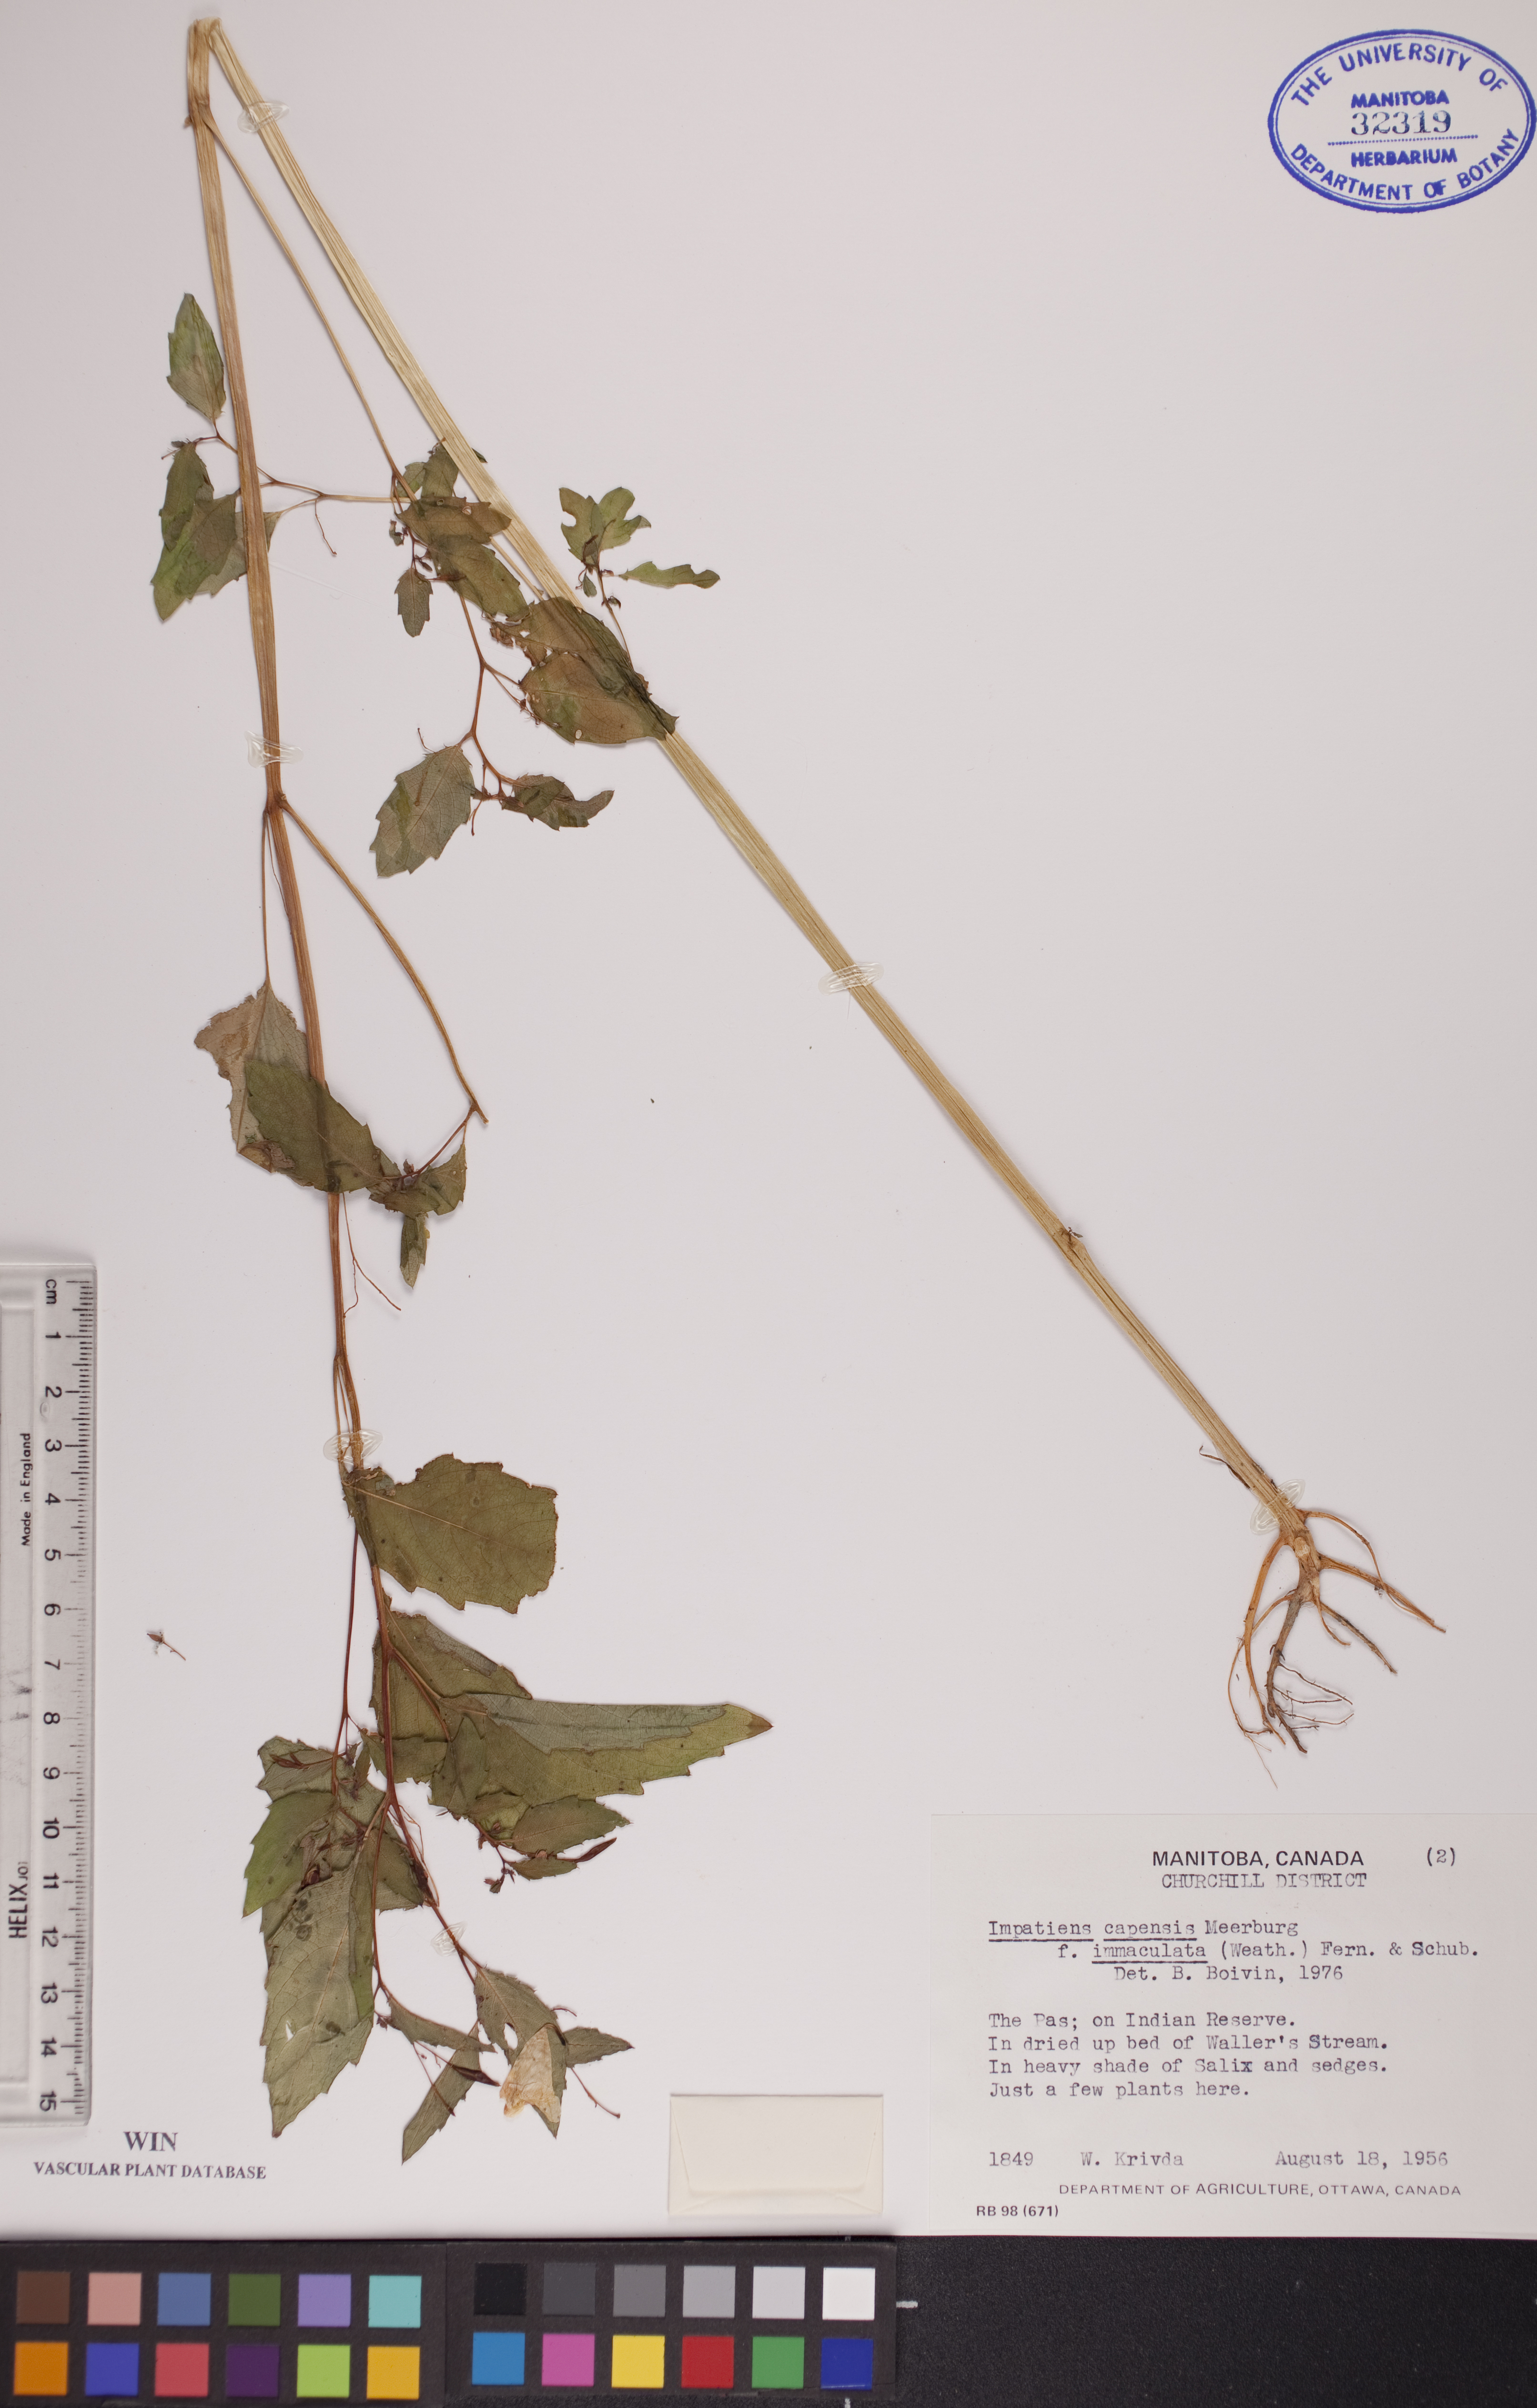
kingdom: Plantae
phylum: Tracheophyta
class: Magnoliopsida
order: Ericales
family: Balsaminaceae
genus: Impatiens
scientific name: Impatiens capensis
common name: Orange balsam
